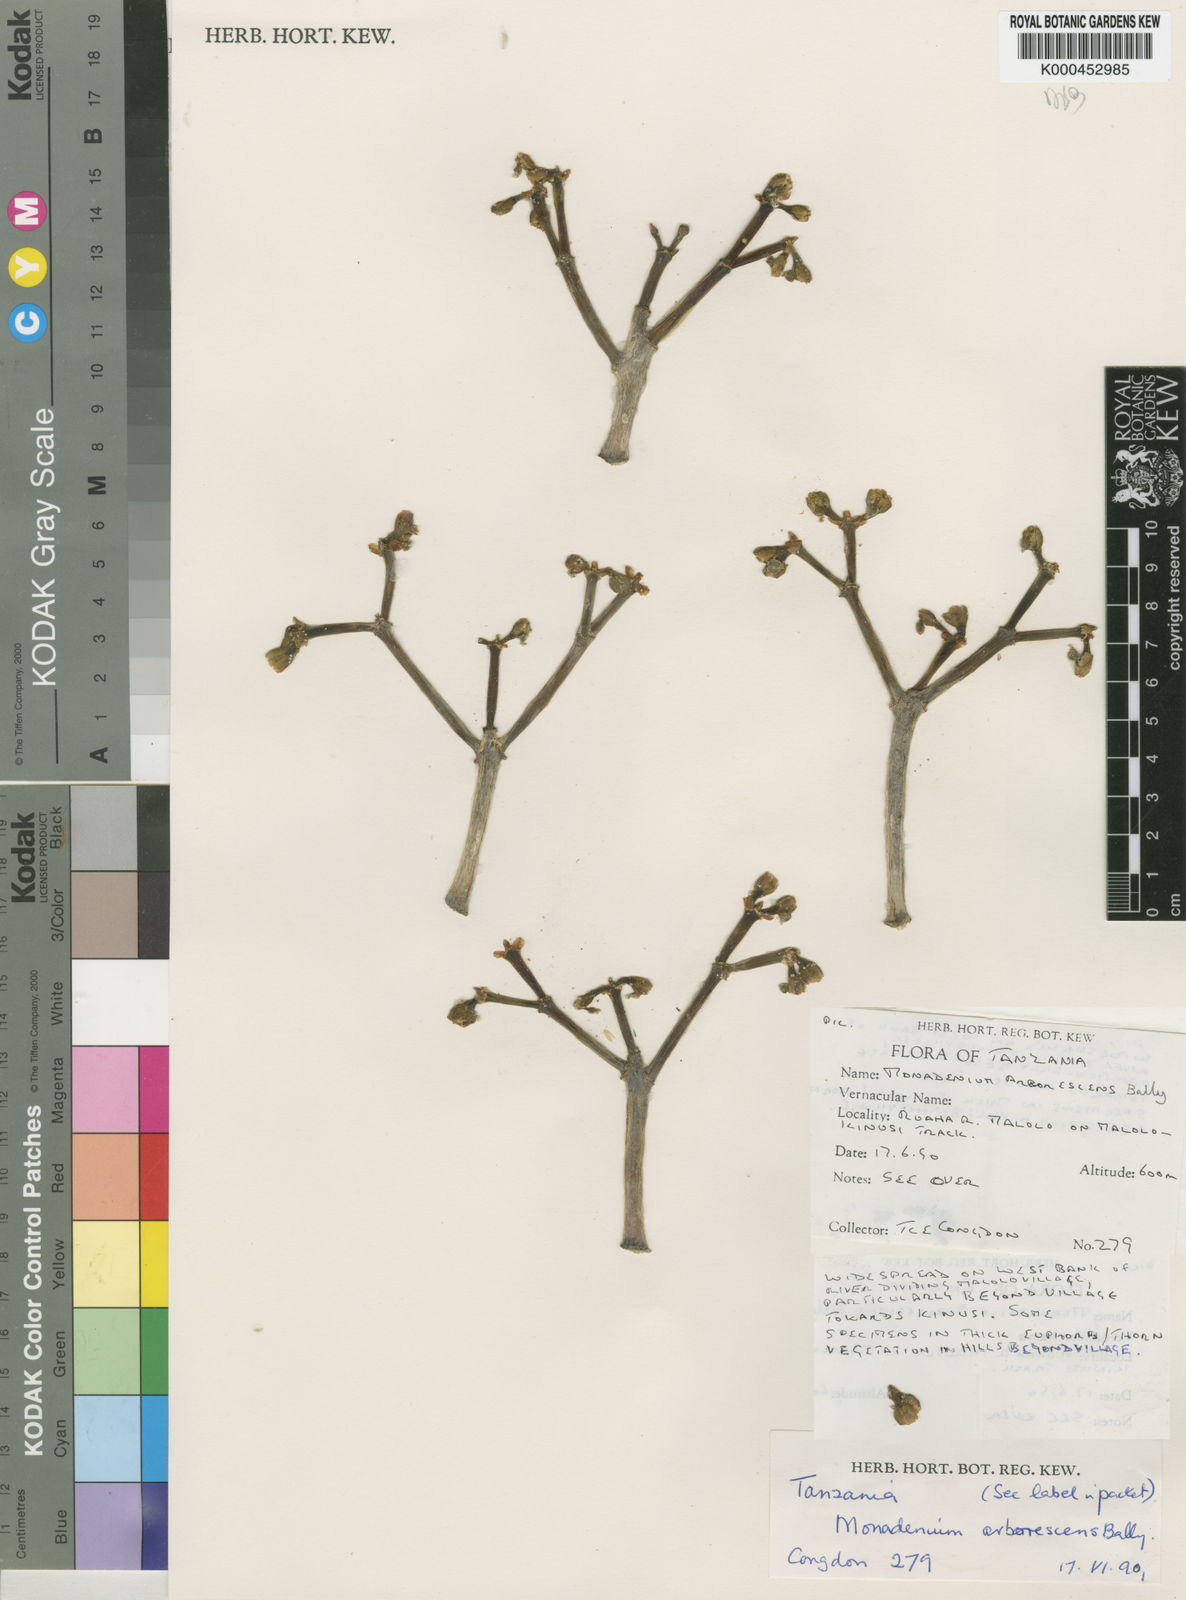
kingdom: Plantae
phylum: Tracheophyta
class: Magnoliopsida
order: Malpighiales
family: Euphorbiaceae
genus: Euphorbia
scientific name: Euphorbia neoarborescens
